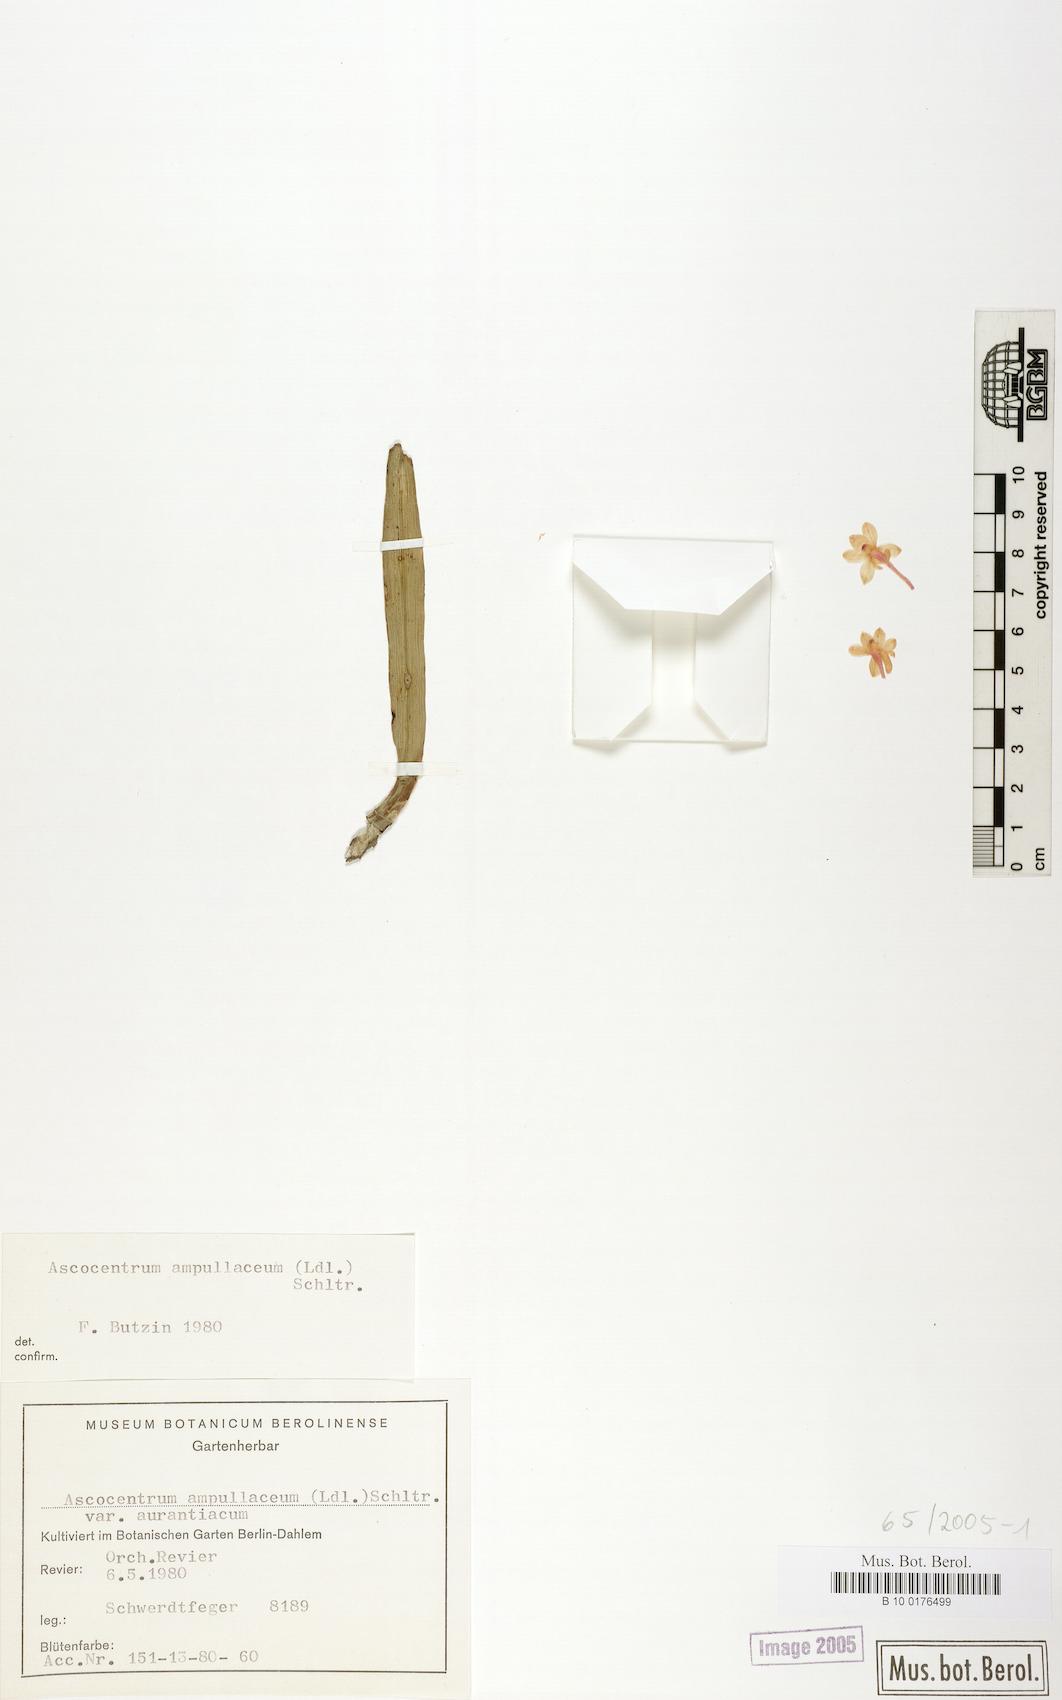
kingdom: Plantae
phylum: Tracheophyta
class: Liliopsida
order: Asparagales
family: Orchidaceae
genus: Vanda
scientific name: Vanda ampullacea
